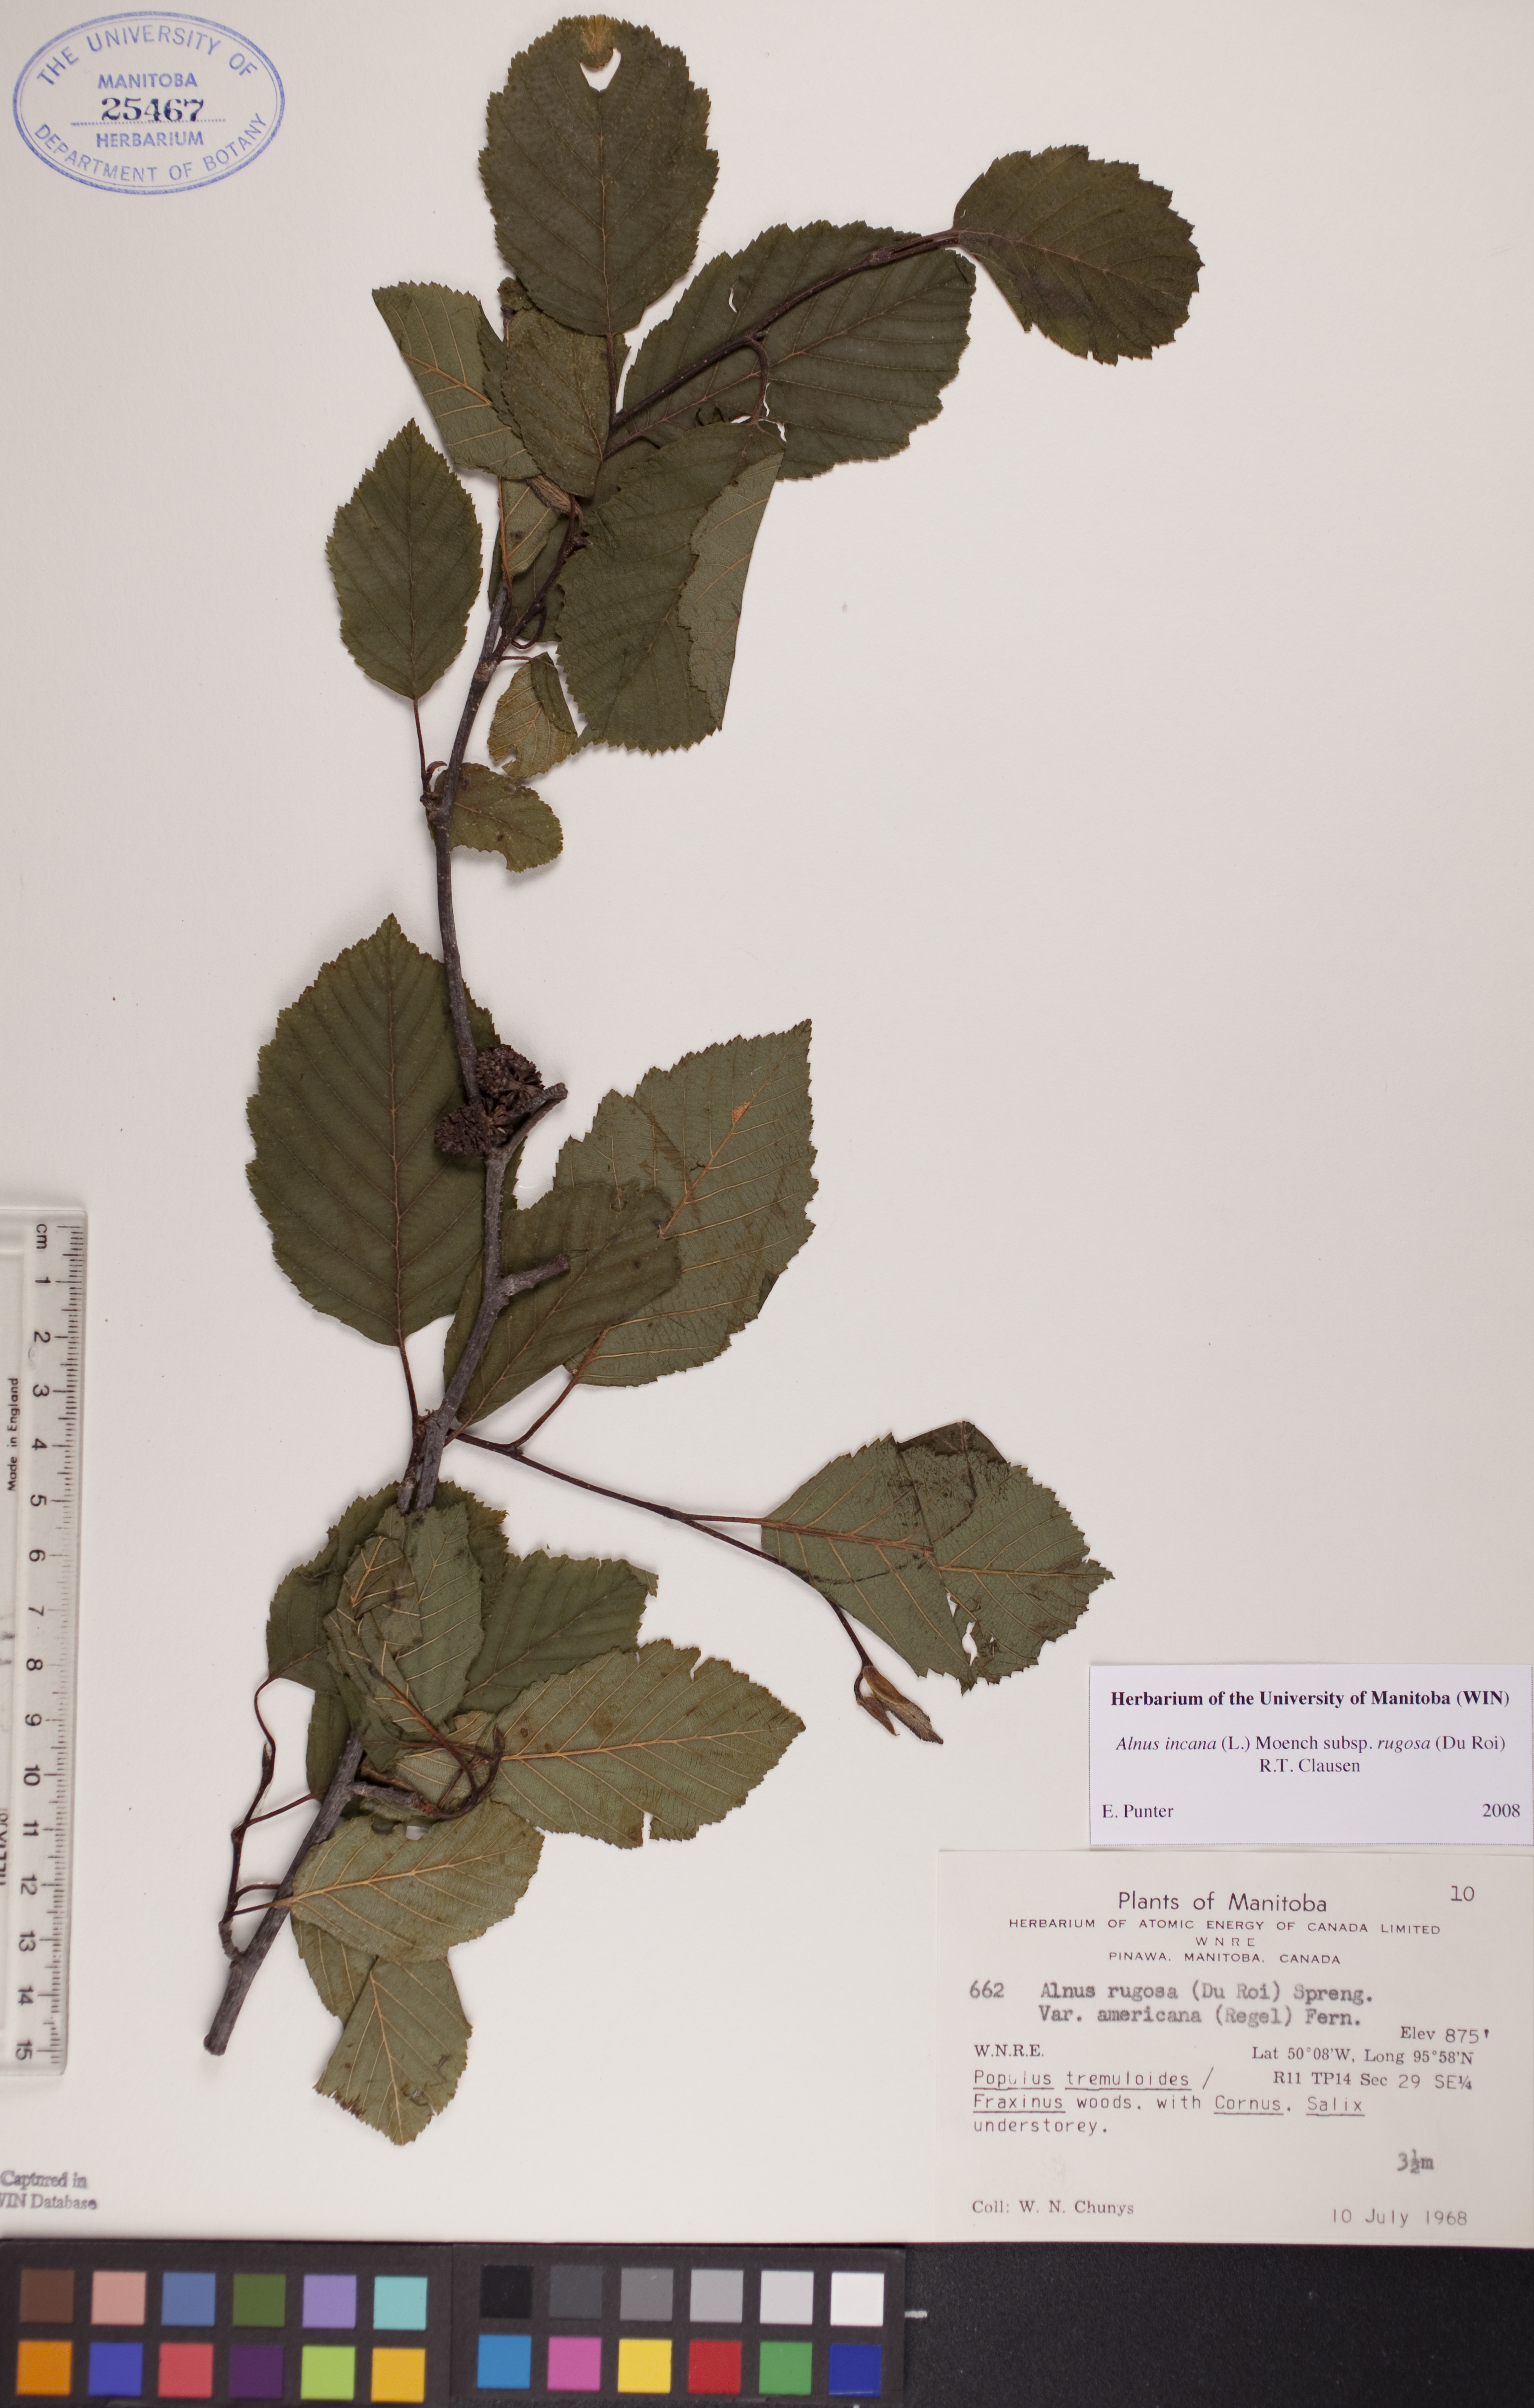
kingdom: Plantae
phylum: Tracheophyta
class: Magnoliopsida
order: Fagales
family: Betulaceae
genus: Alnus
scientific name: Alnus incana
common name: Grey alder
